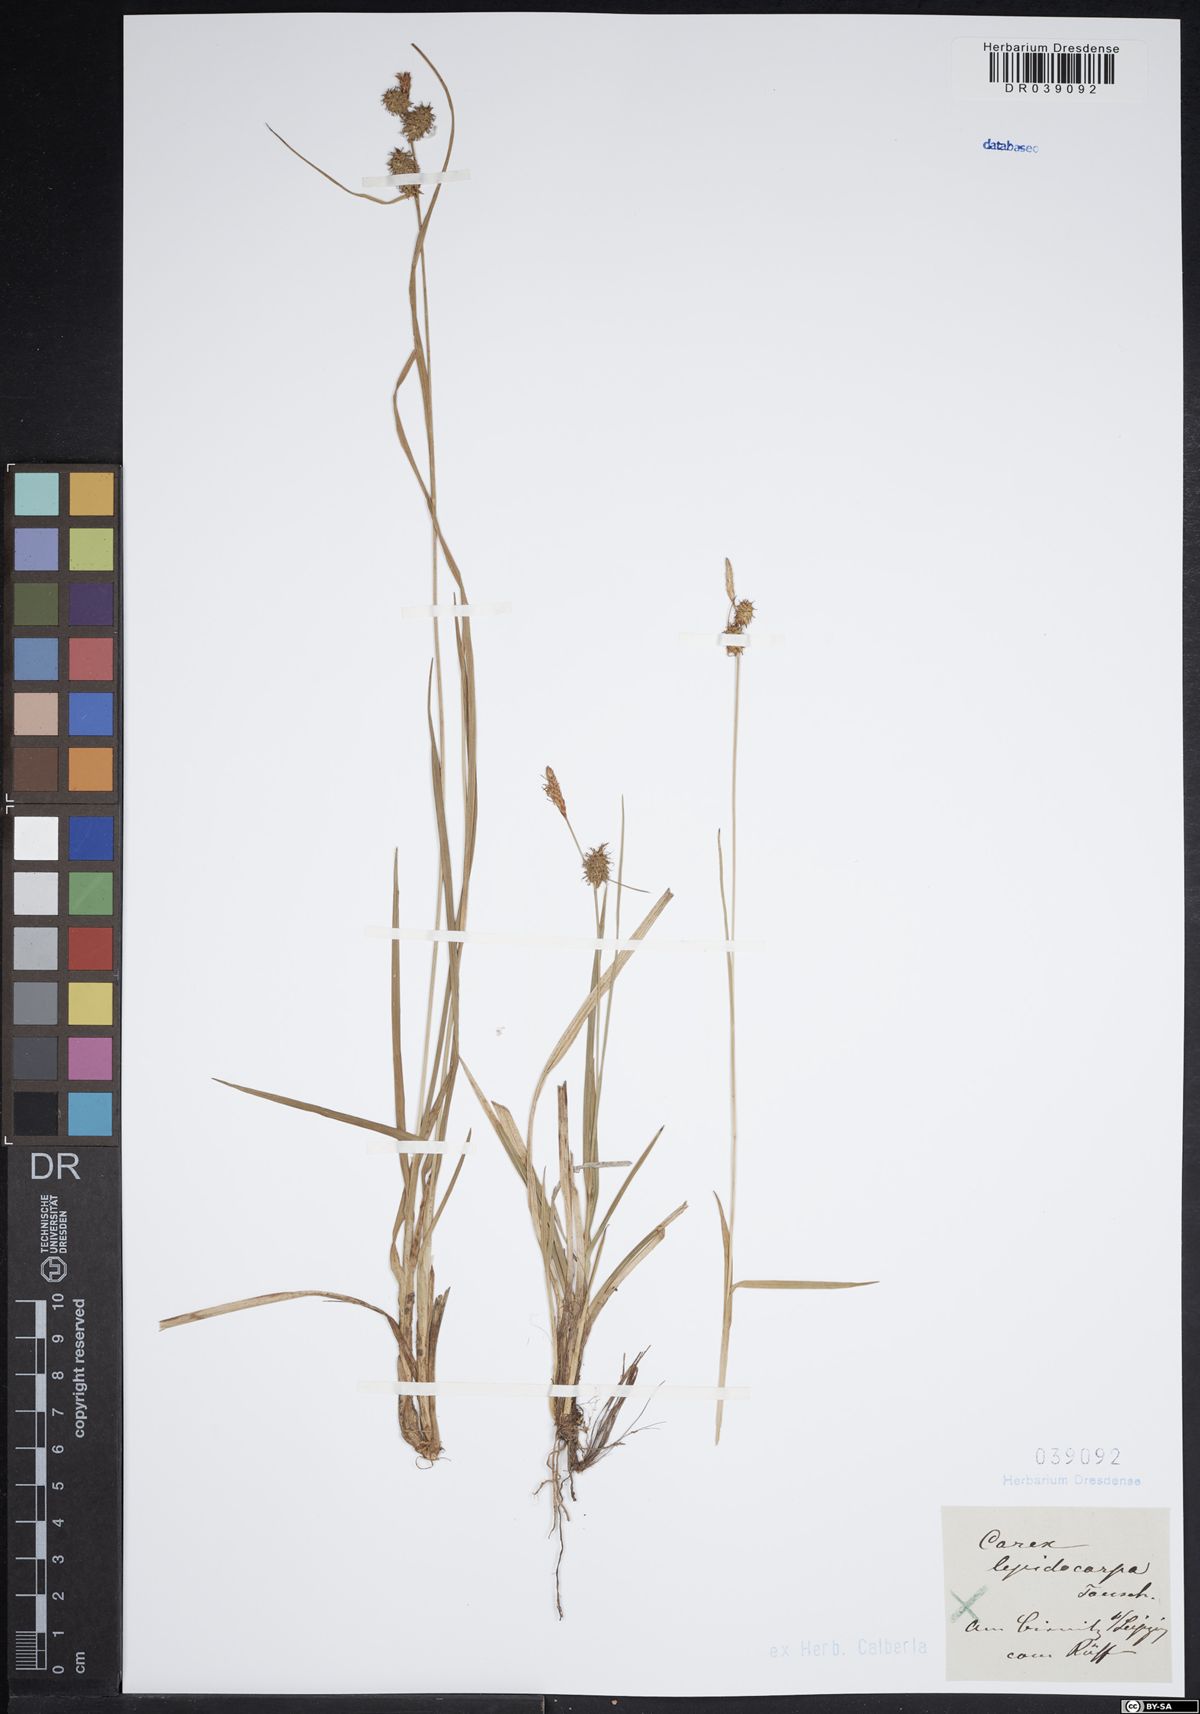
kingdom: Plantae
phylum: Tracheophyta
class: Liliopsida
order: Poales
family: Cyperaceae
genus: Carex
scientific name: Carex lepidocarpa
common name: Long-stalked yellow-sedge
